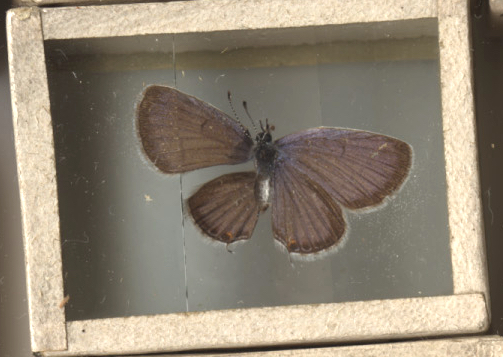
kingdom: Animalia
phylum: Arthropoda
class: Insecta
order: Lepidoptera
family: Lycaenidae
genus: Elkalyce
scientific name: Elkalyce comyntas
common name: Eastern Tailed Blue
